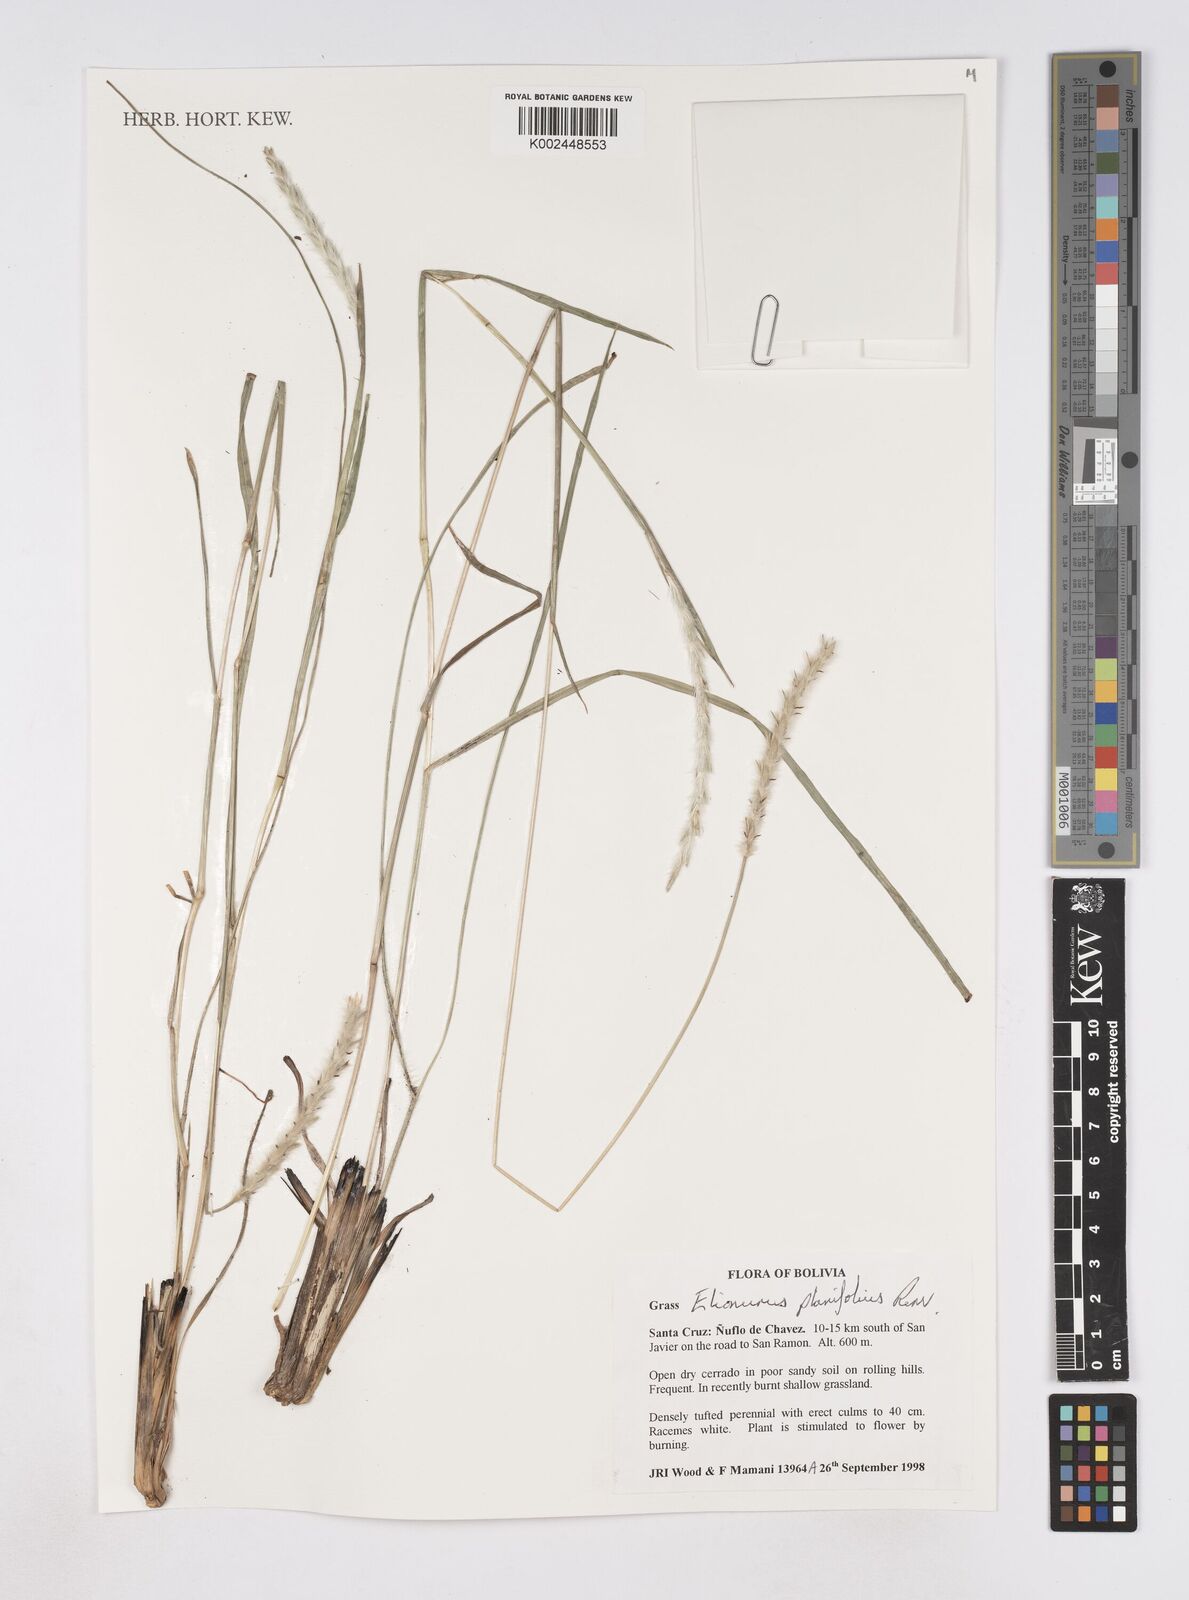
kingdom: Plantae
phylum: Tracheophyta
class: Liliopsida
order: Poales
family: Poaceae
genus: Elionurus
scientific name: Elionurus planifolius
